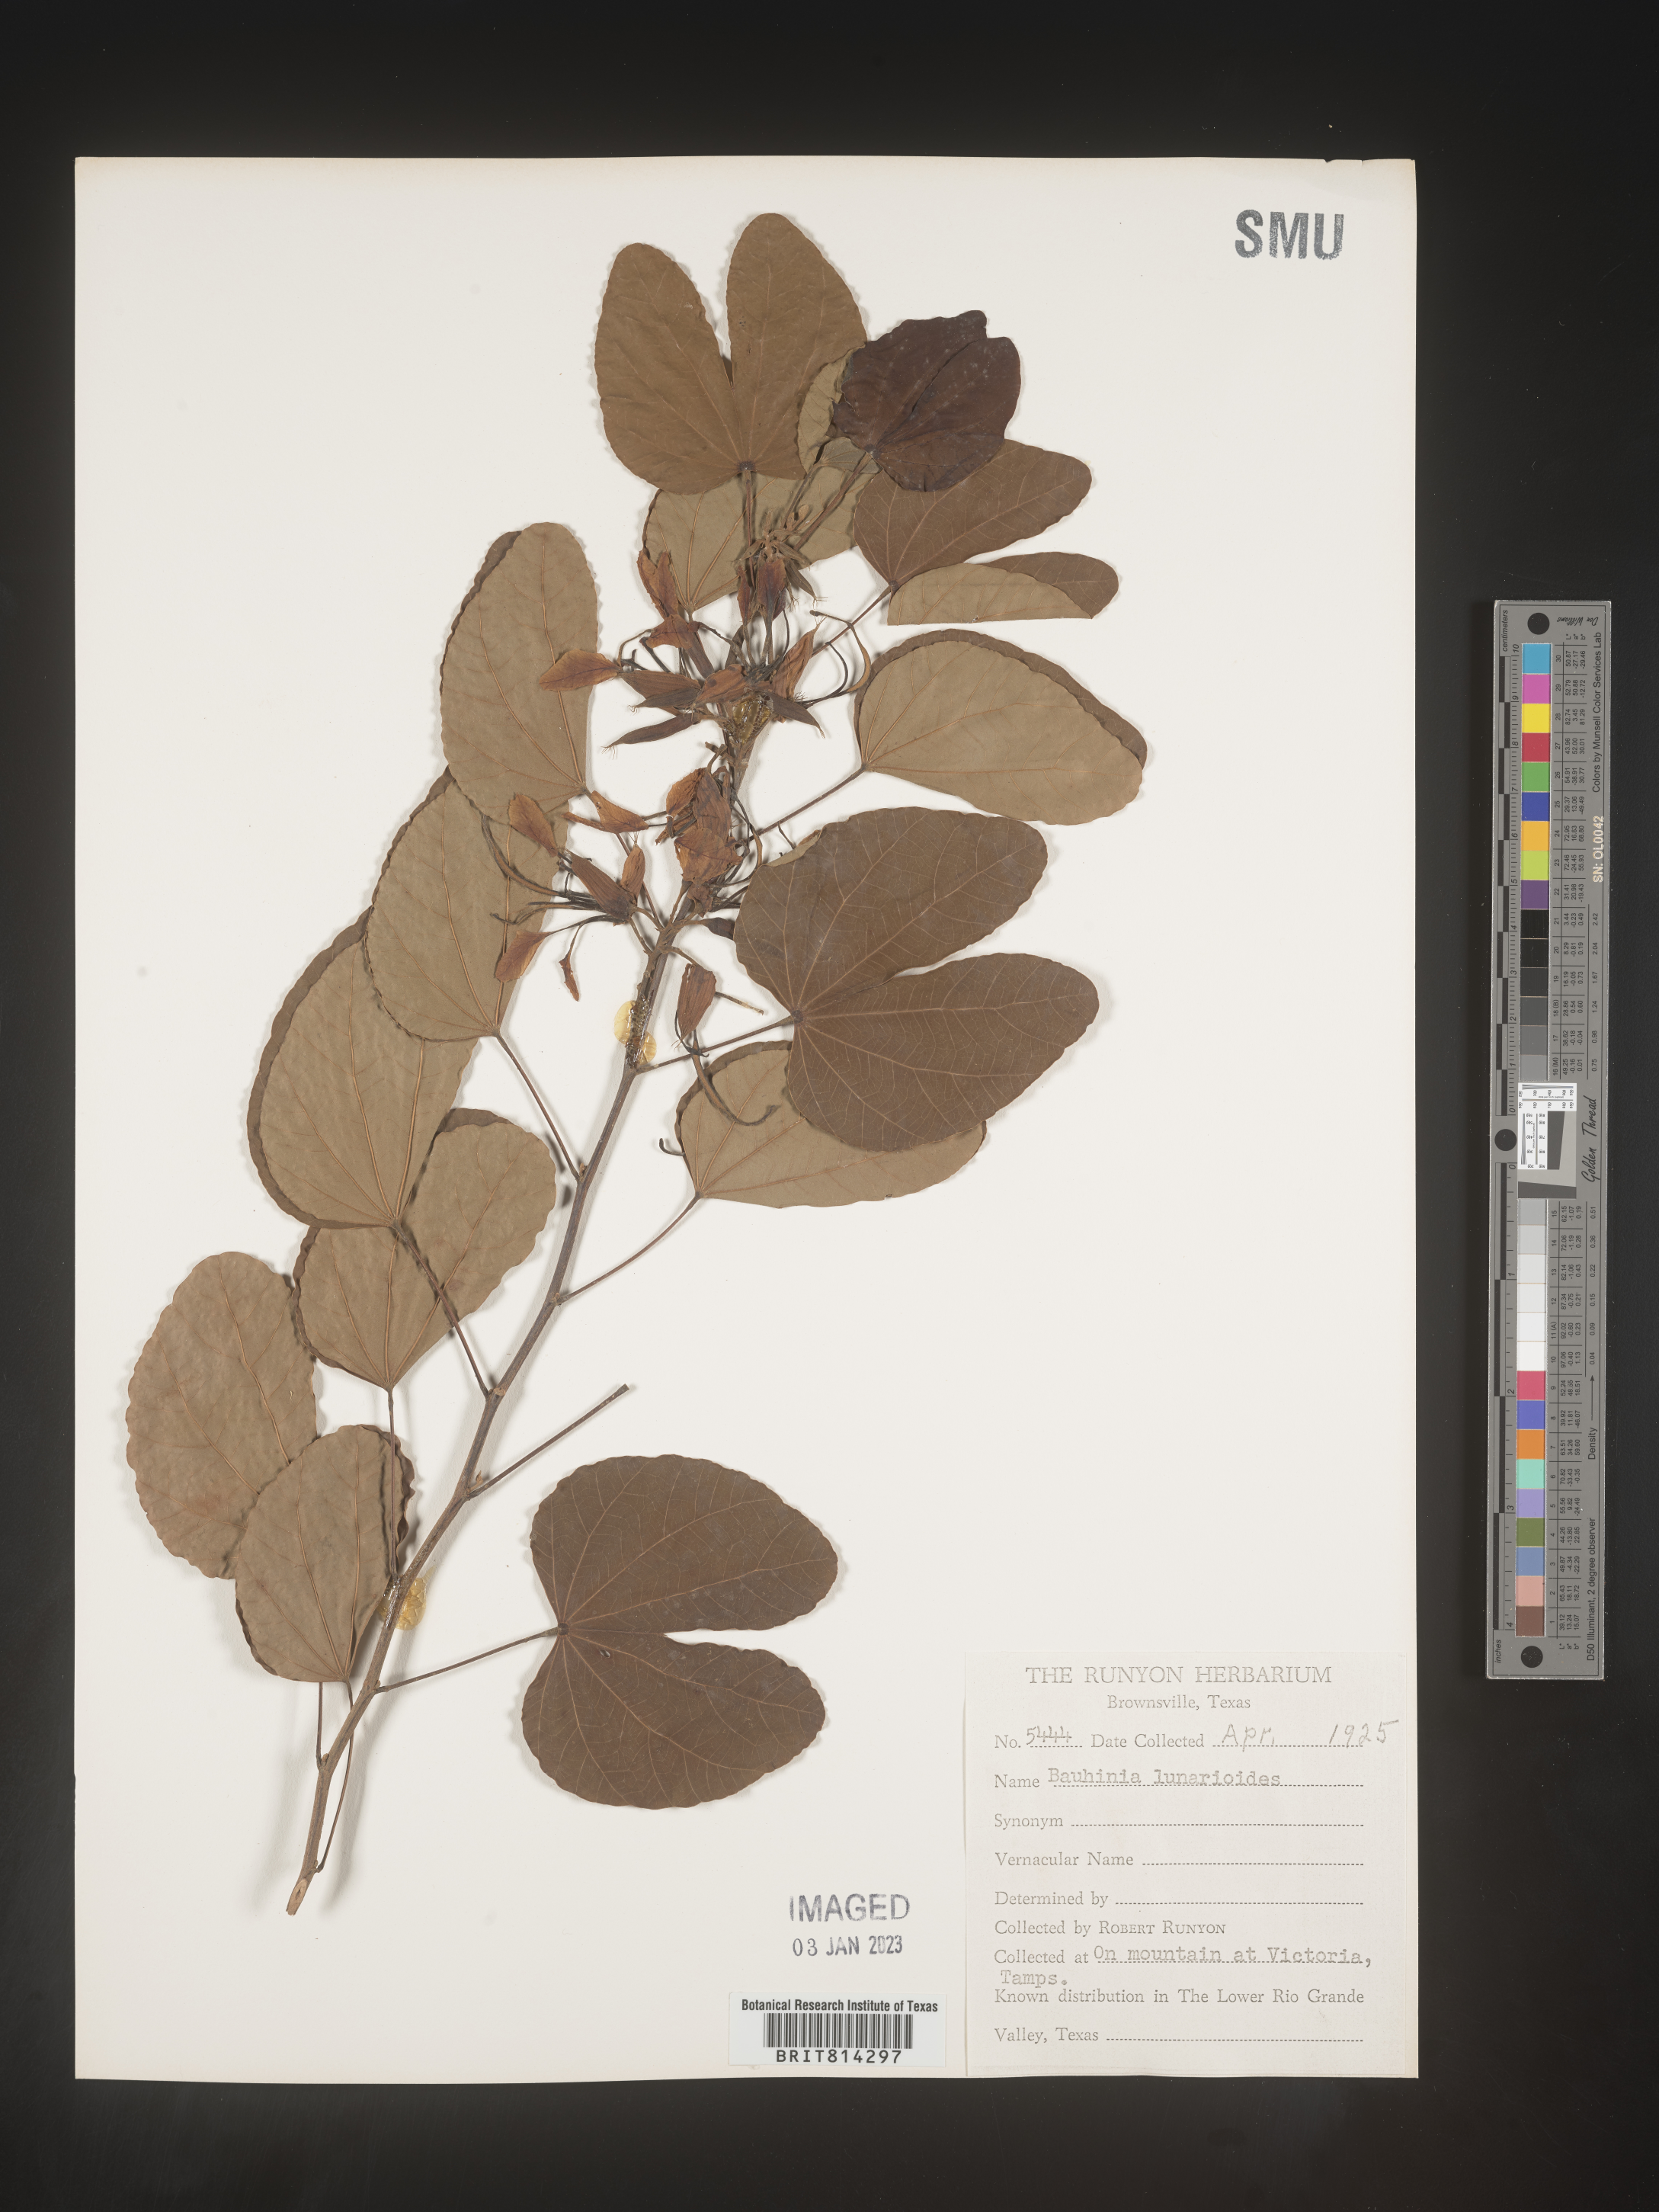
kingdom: Plantae
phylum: Tracheophyta
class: Magnoliopsida
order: Fabales
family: Fabaceae
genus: Bauhinia
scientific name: Bauhinia
